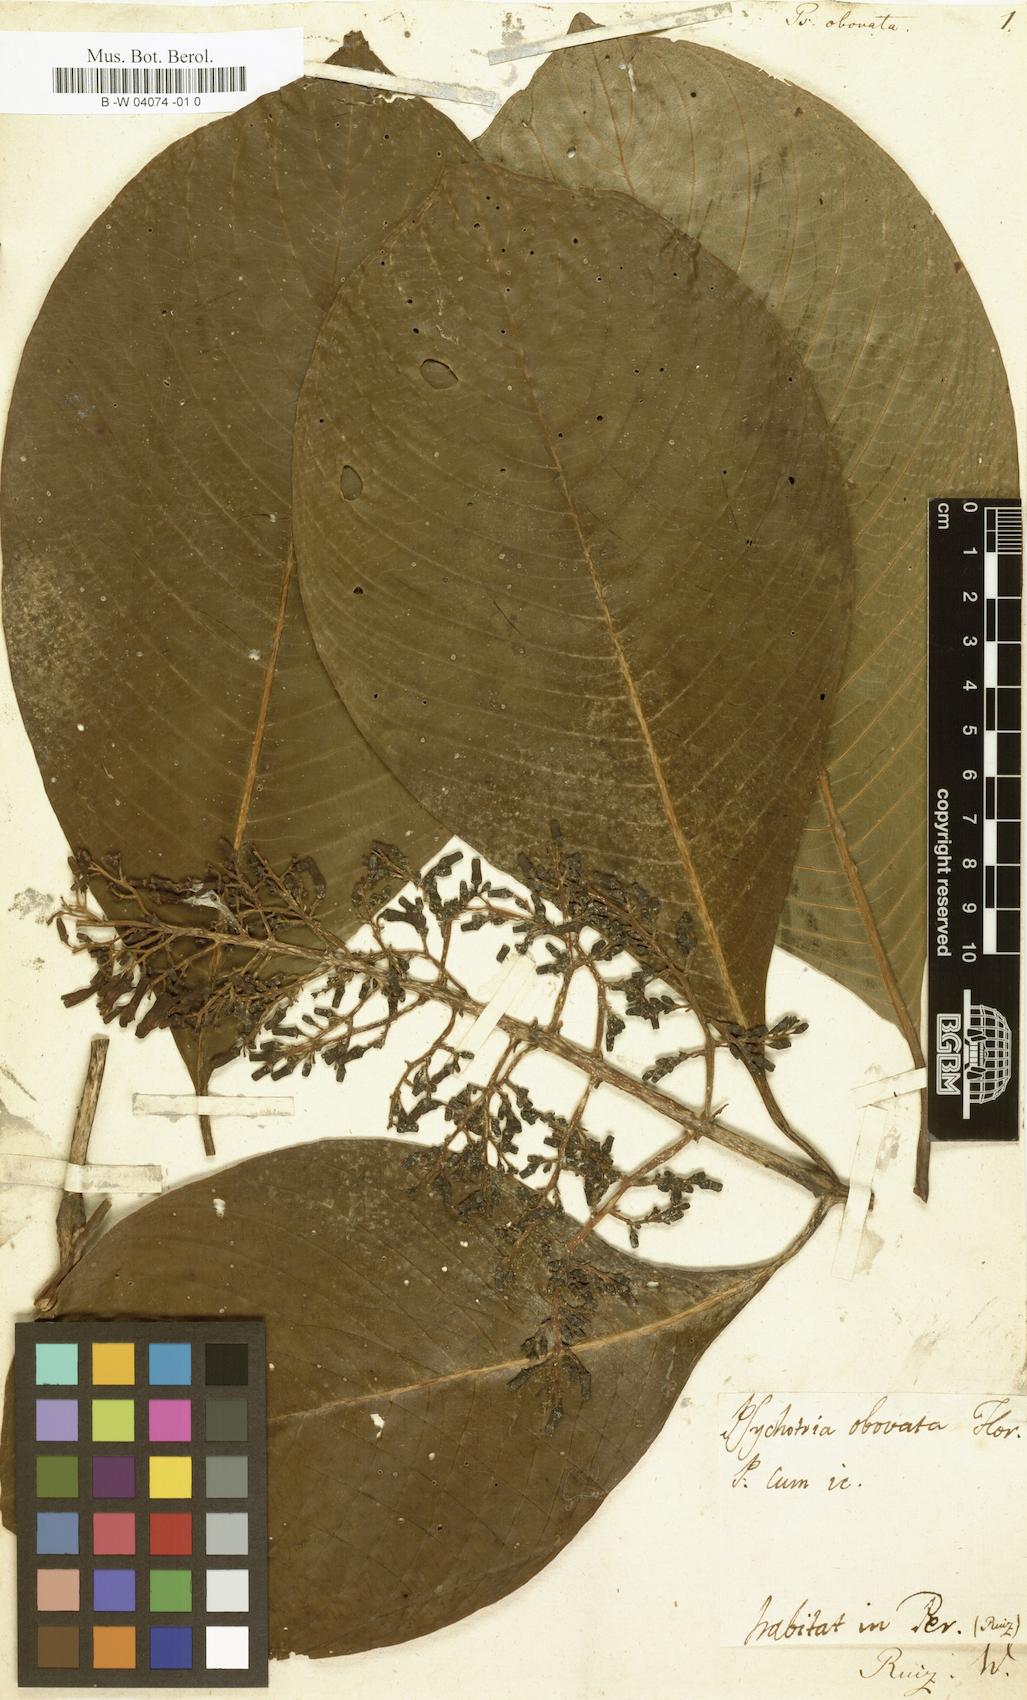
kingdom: Plantae
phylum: Tracheophyta
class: Magnoliopsida
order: Gentianales
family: Rubiaceae
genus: Psychotria
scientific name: Psychotria obovata
